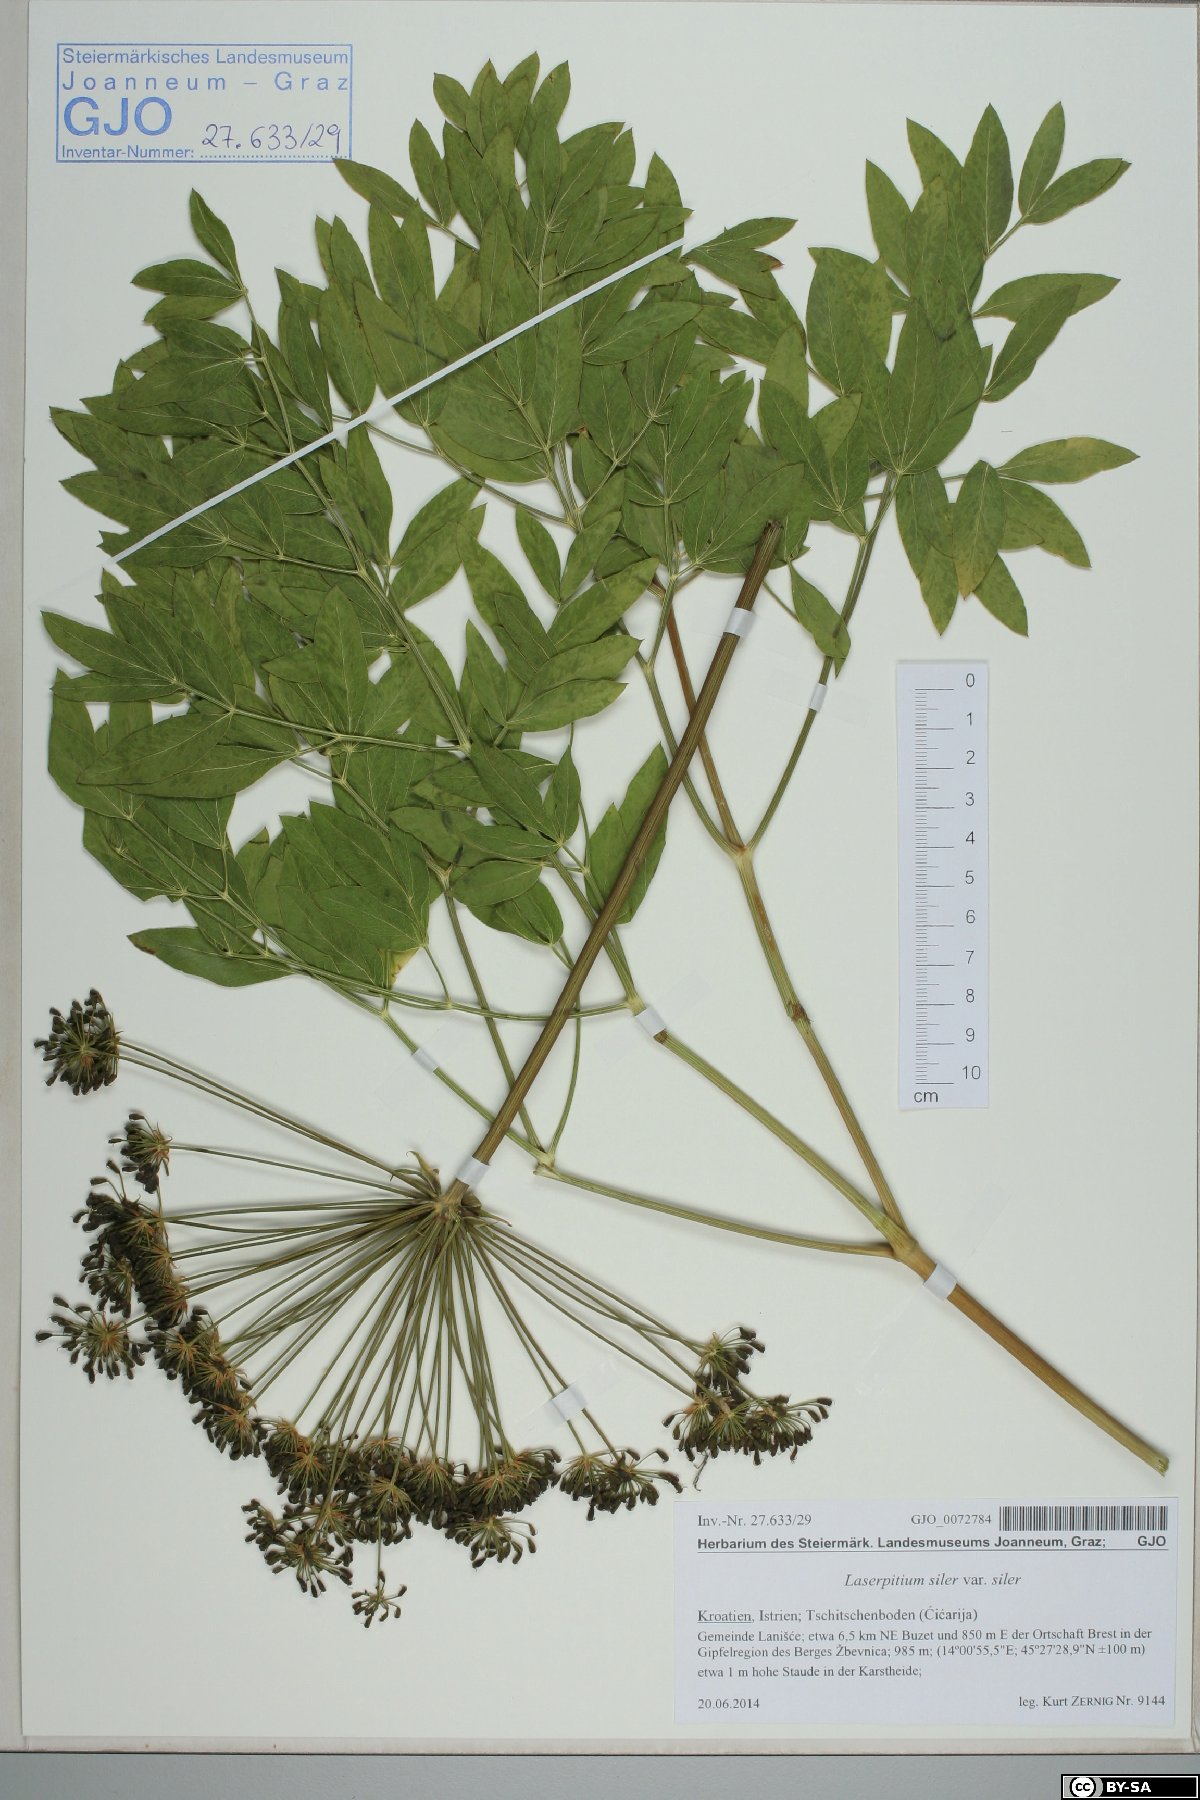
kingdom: Plantae
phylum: Tracheophyta
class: Magnoliopsida
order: Apiales
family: Apiaceae
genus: Siler
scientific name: Siler montanum
